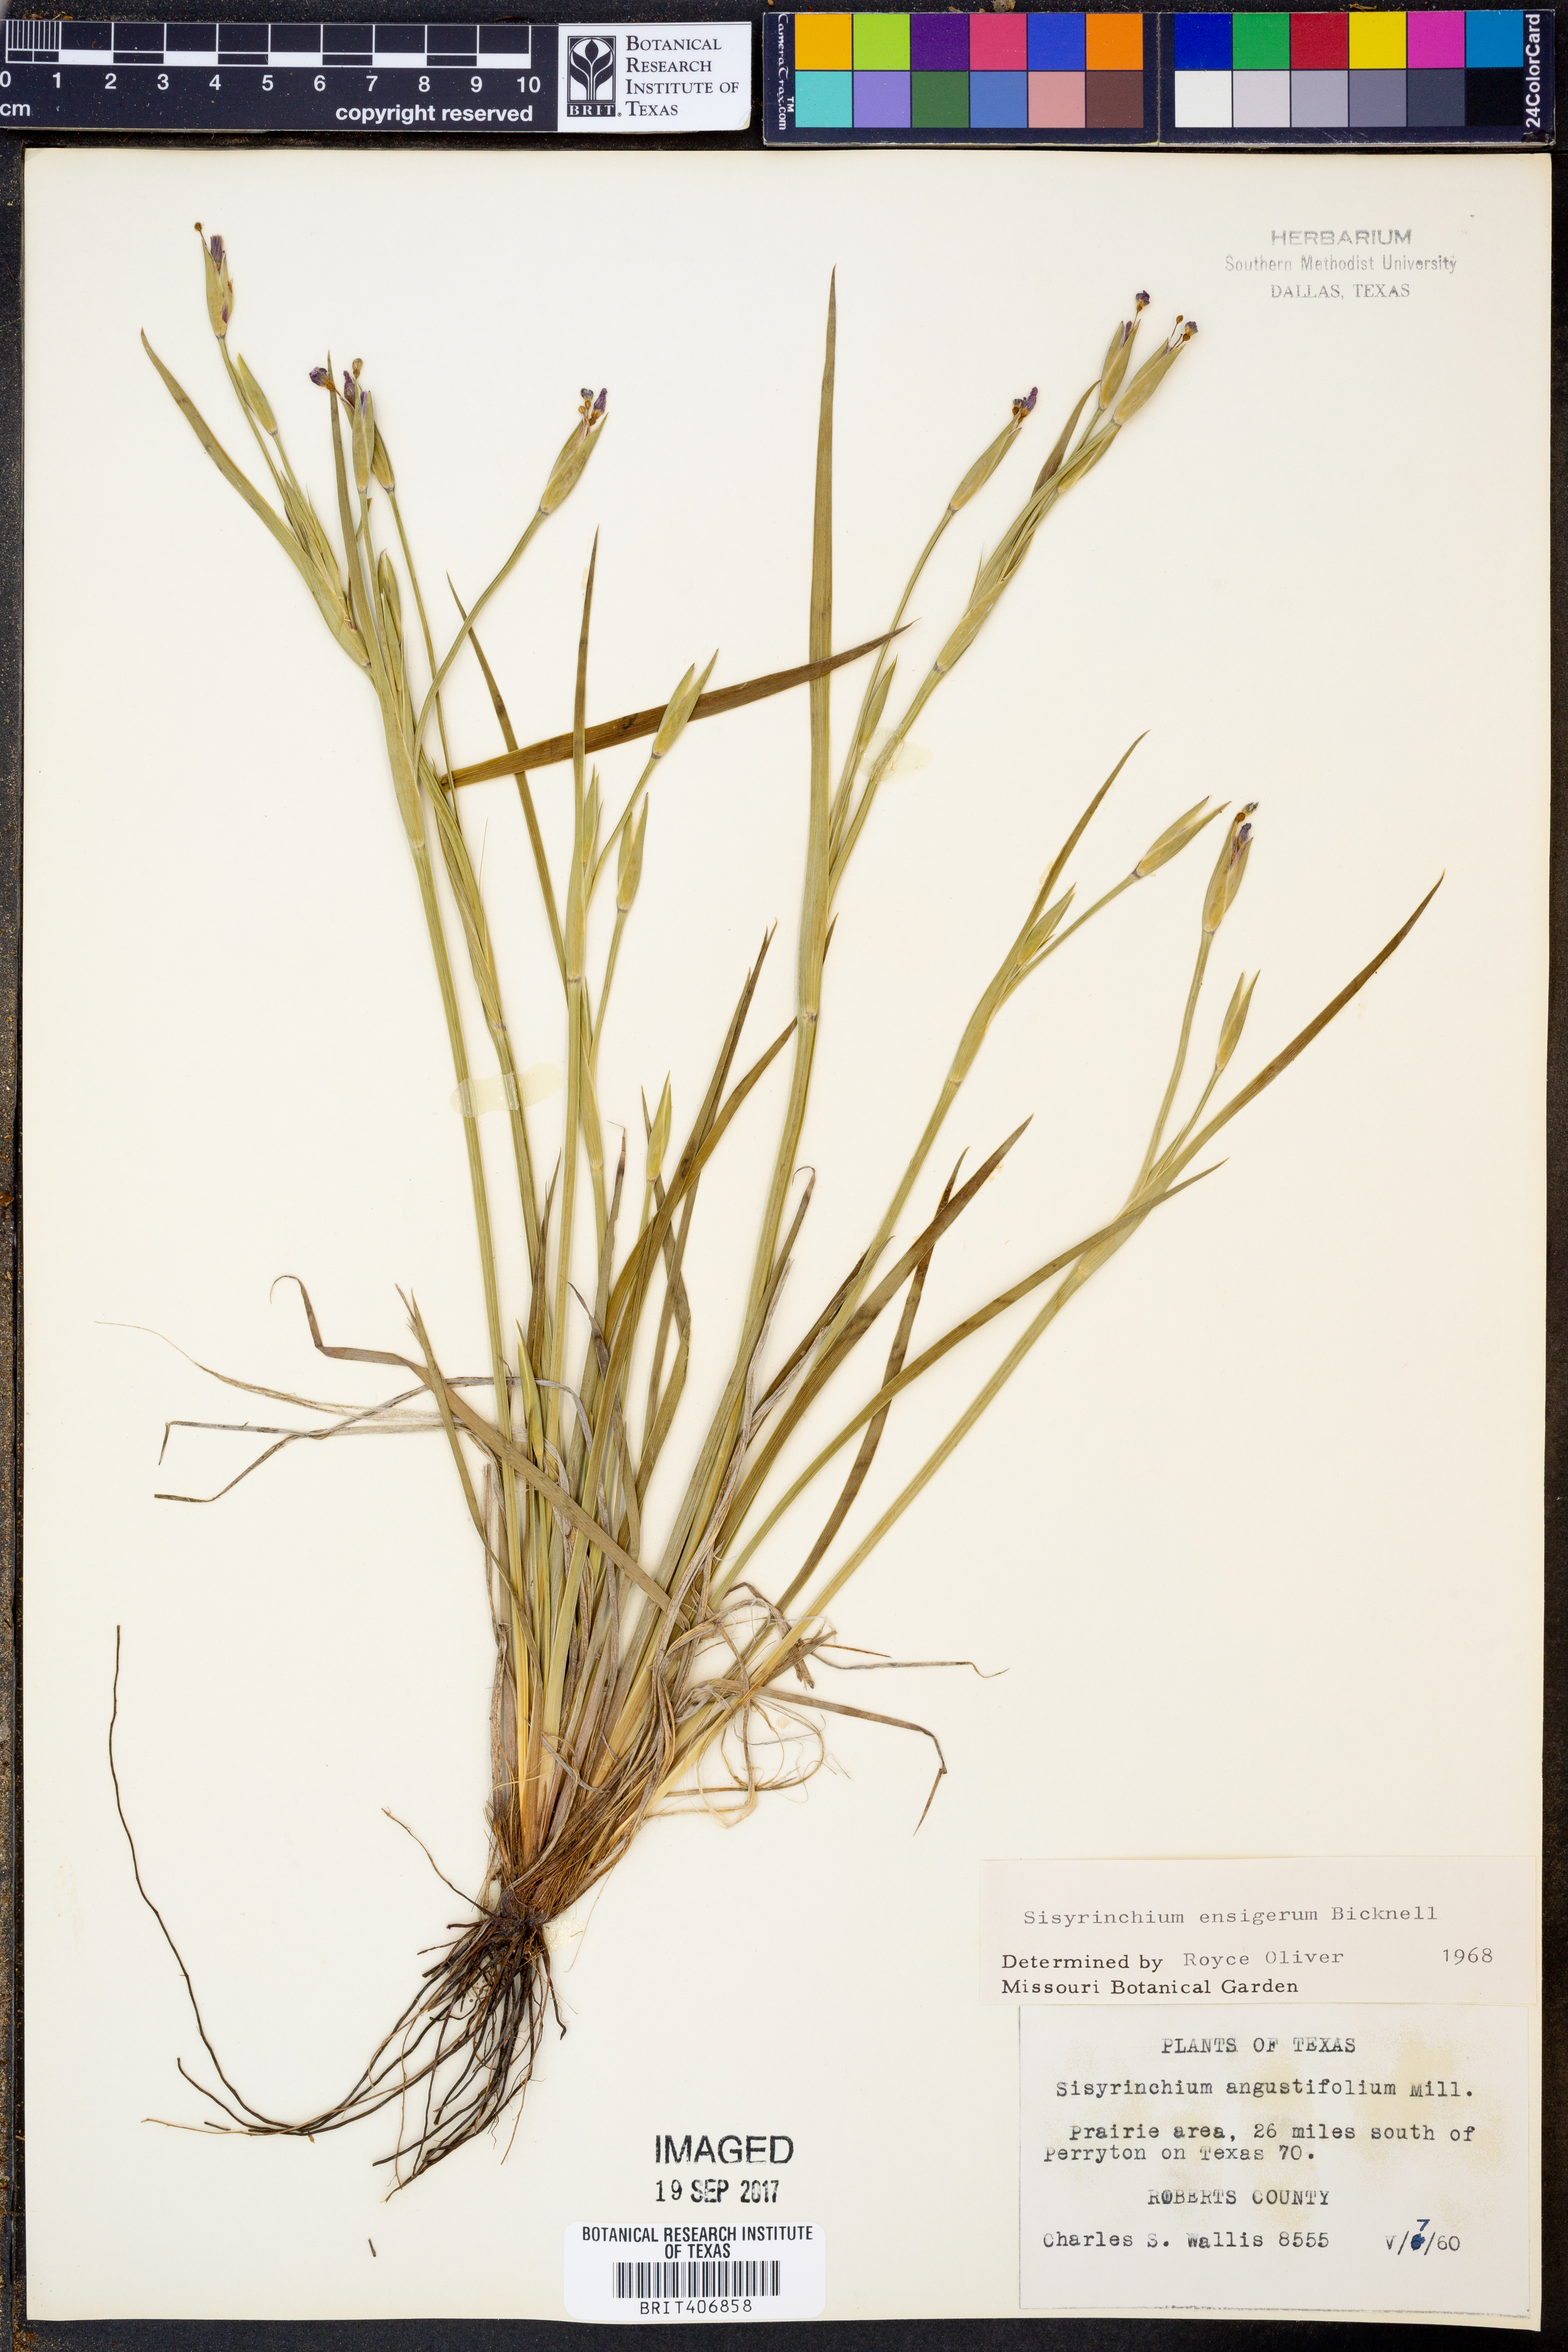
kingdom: Plantae
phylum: Tracheophyta
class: Liliopsida
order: Asparagales
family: Iridaceae
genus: Sisyrinchium
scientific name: Sisyrinchium ensigerum
